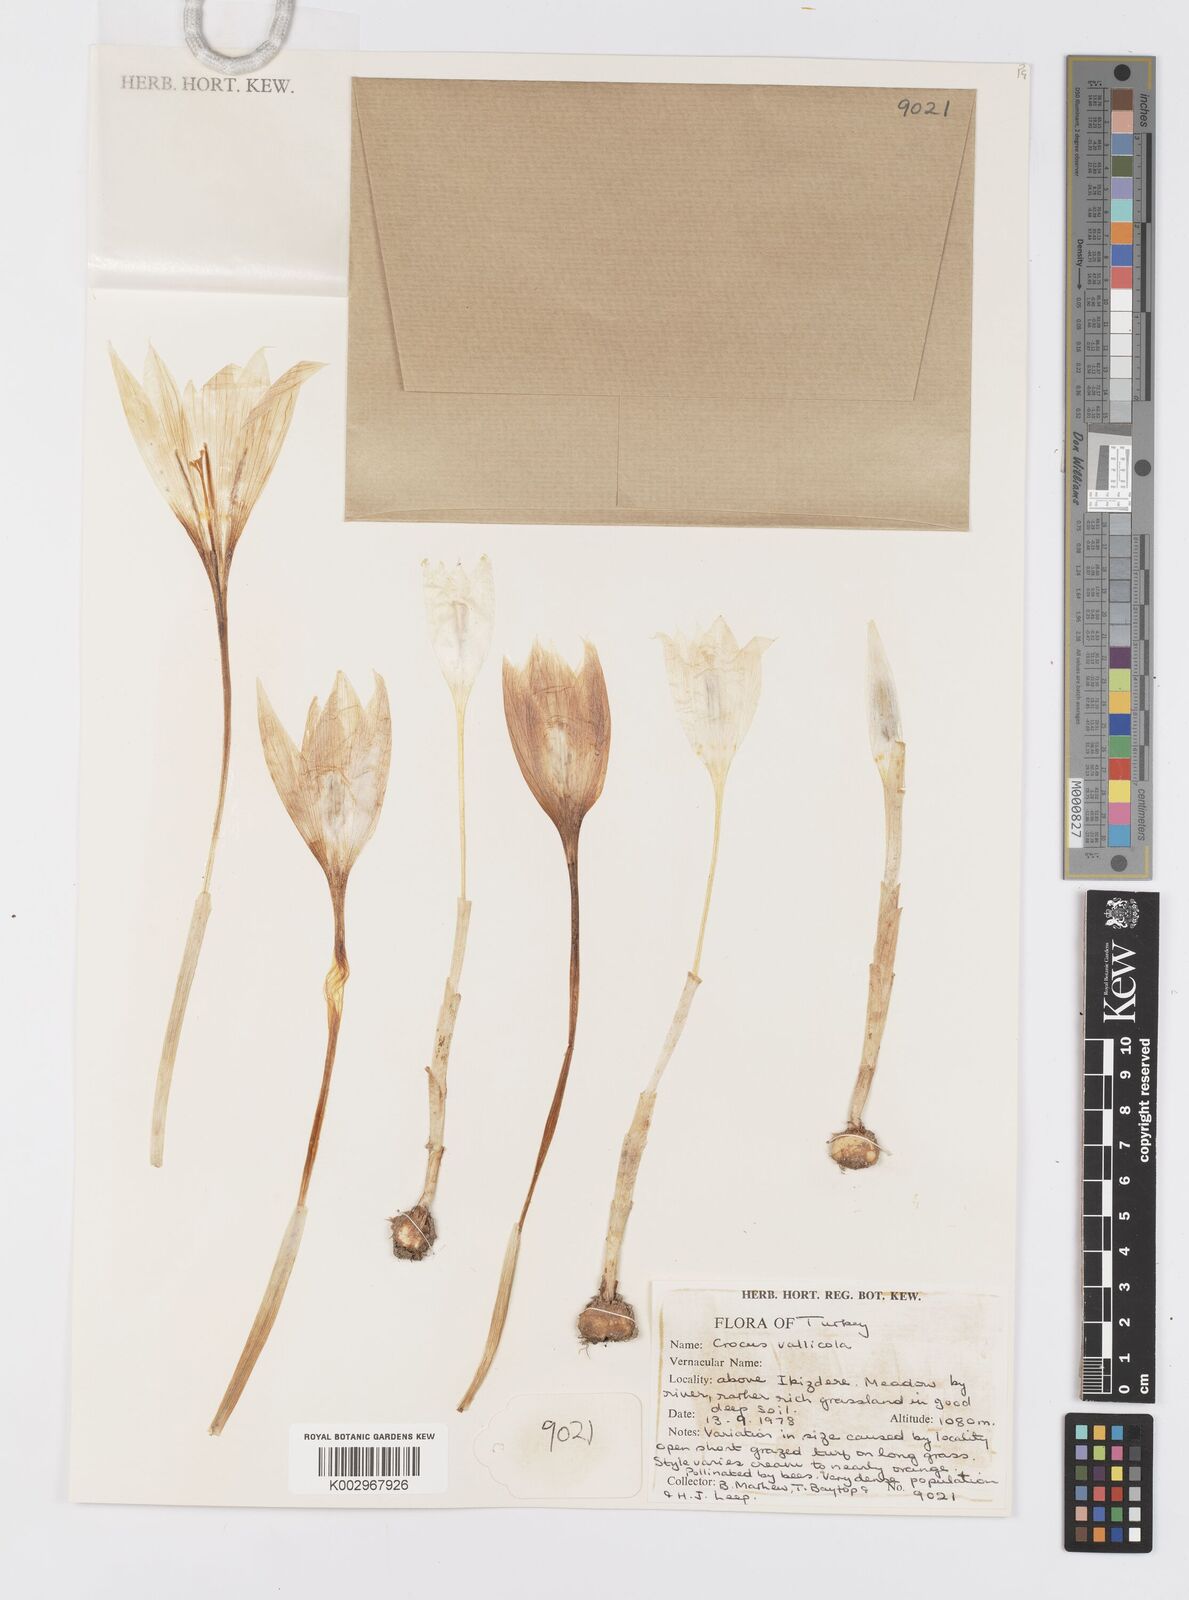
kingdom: Plantae
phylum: Tracheophyta
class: Liliopsida
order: Asparagales
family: Iridaceae
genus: Crocus
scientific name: Crocus vallicola
